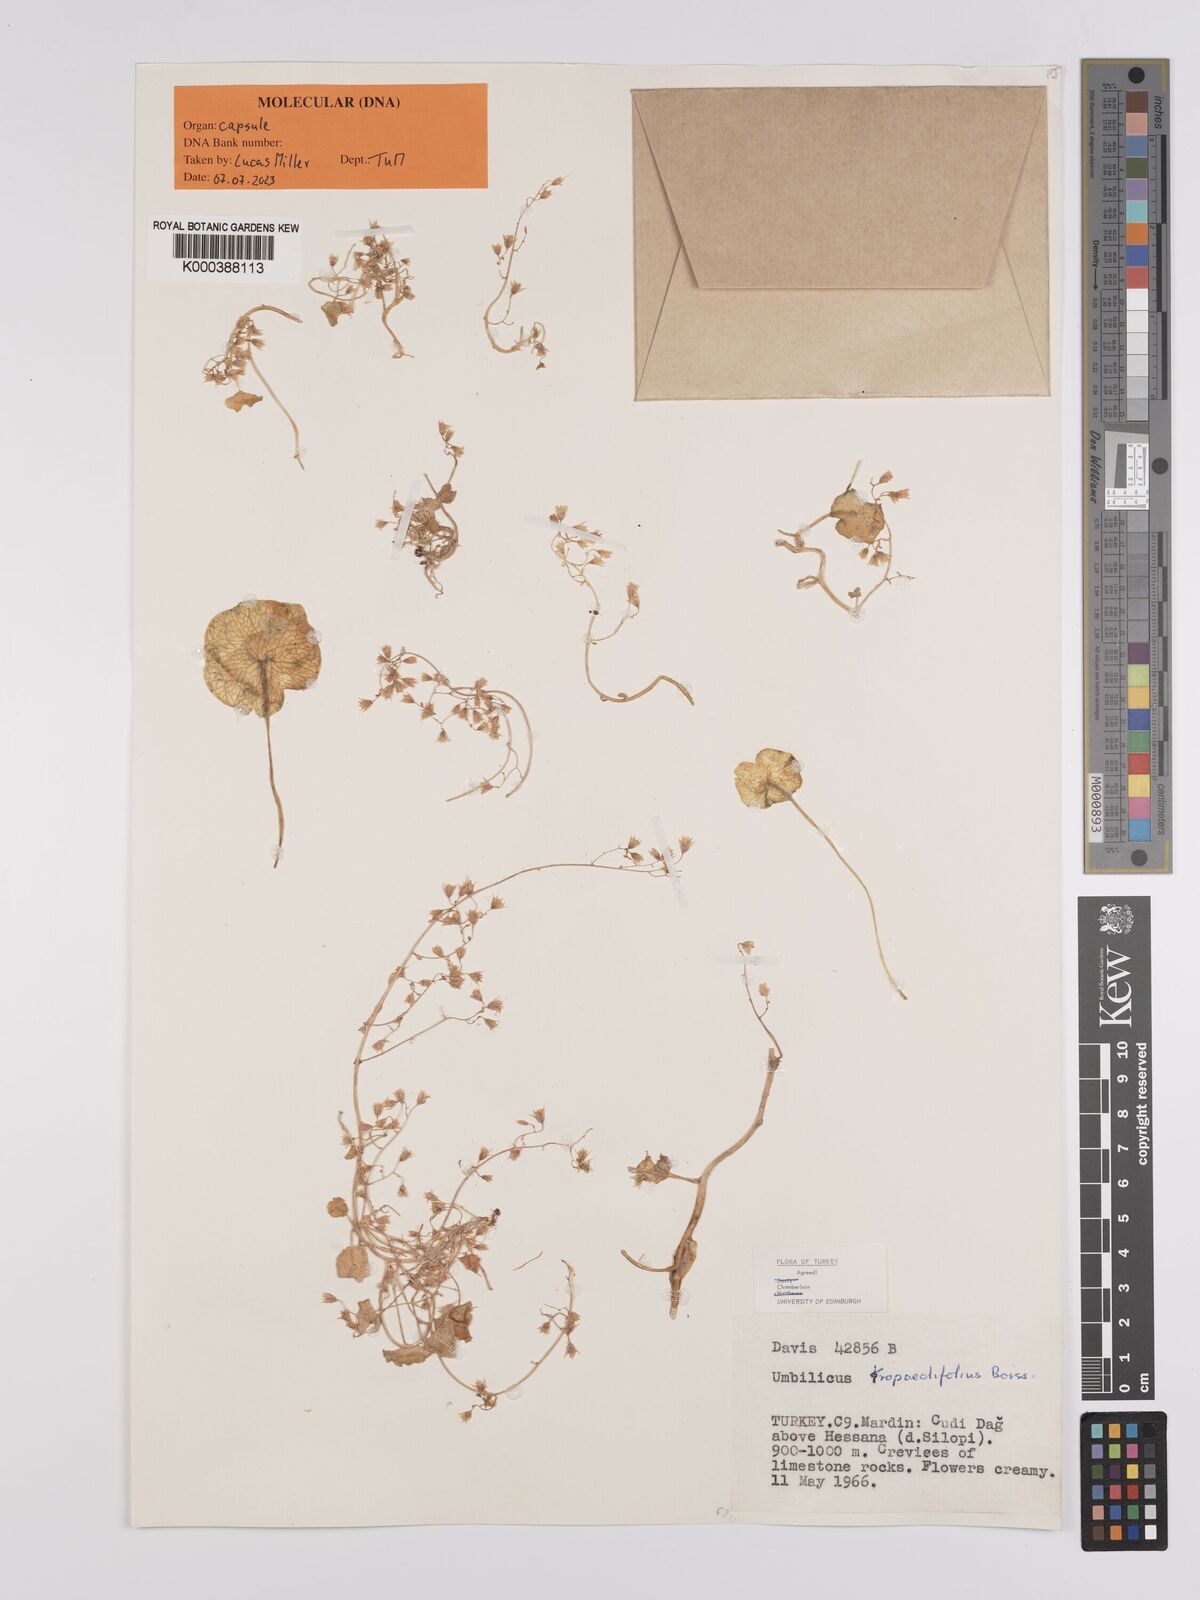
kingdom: Plantae
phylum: Tracheophyta
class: Magnoliopsida
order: Saxifragales
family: Crassulaceae
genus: Umbilicus
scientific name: Umbilicus tropaeolifolius
